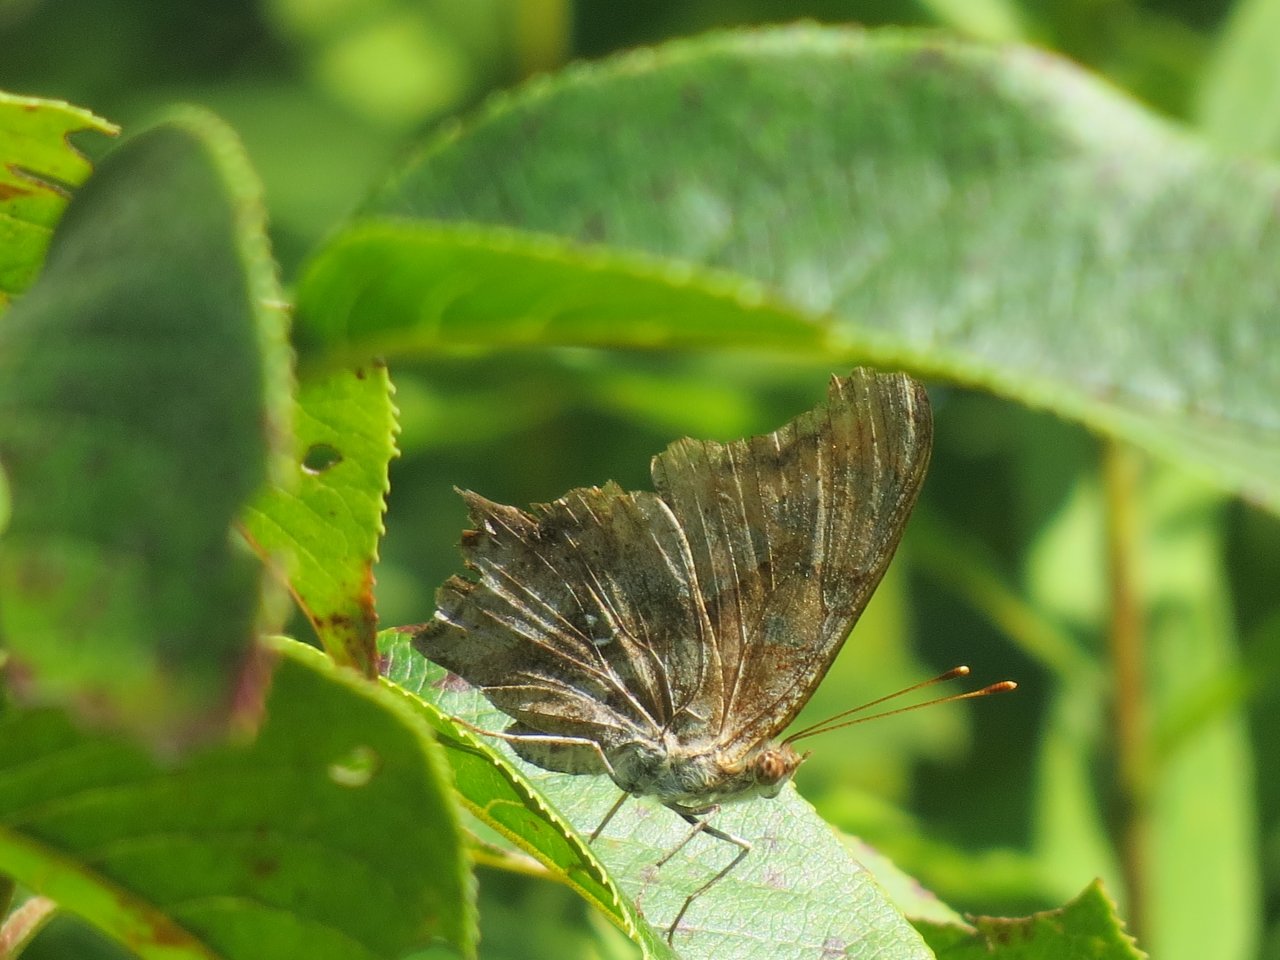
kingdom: Animalia
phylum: Arthropoda
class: Insecta
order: Lepidoptera
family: Nymphalidae
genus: Polygonia
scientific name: Polygonia interrogationis
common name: Question Mark
